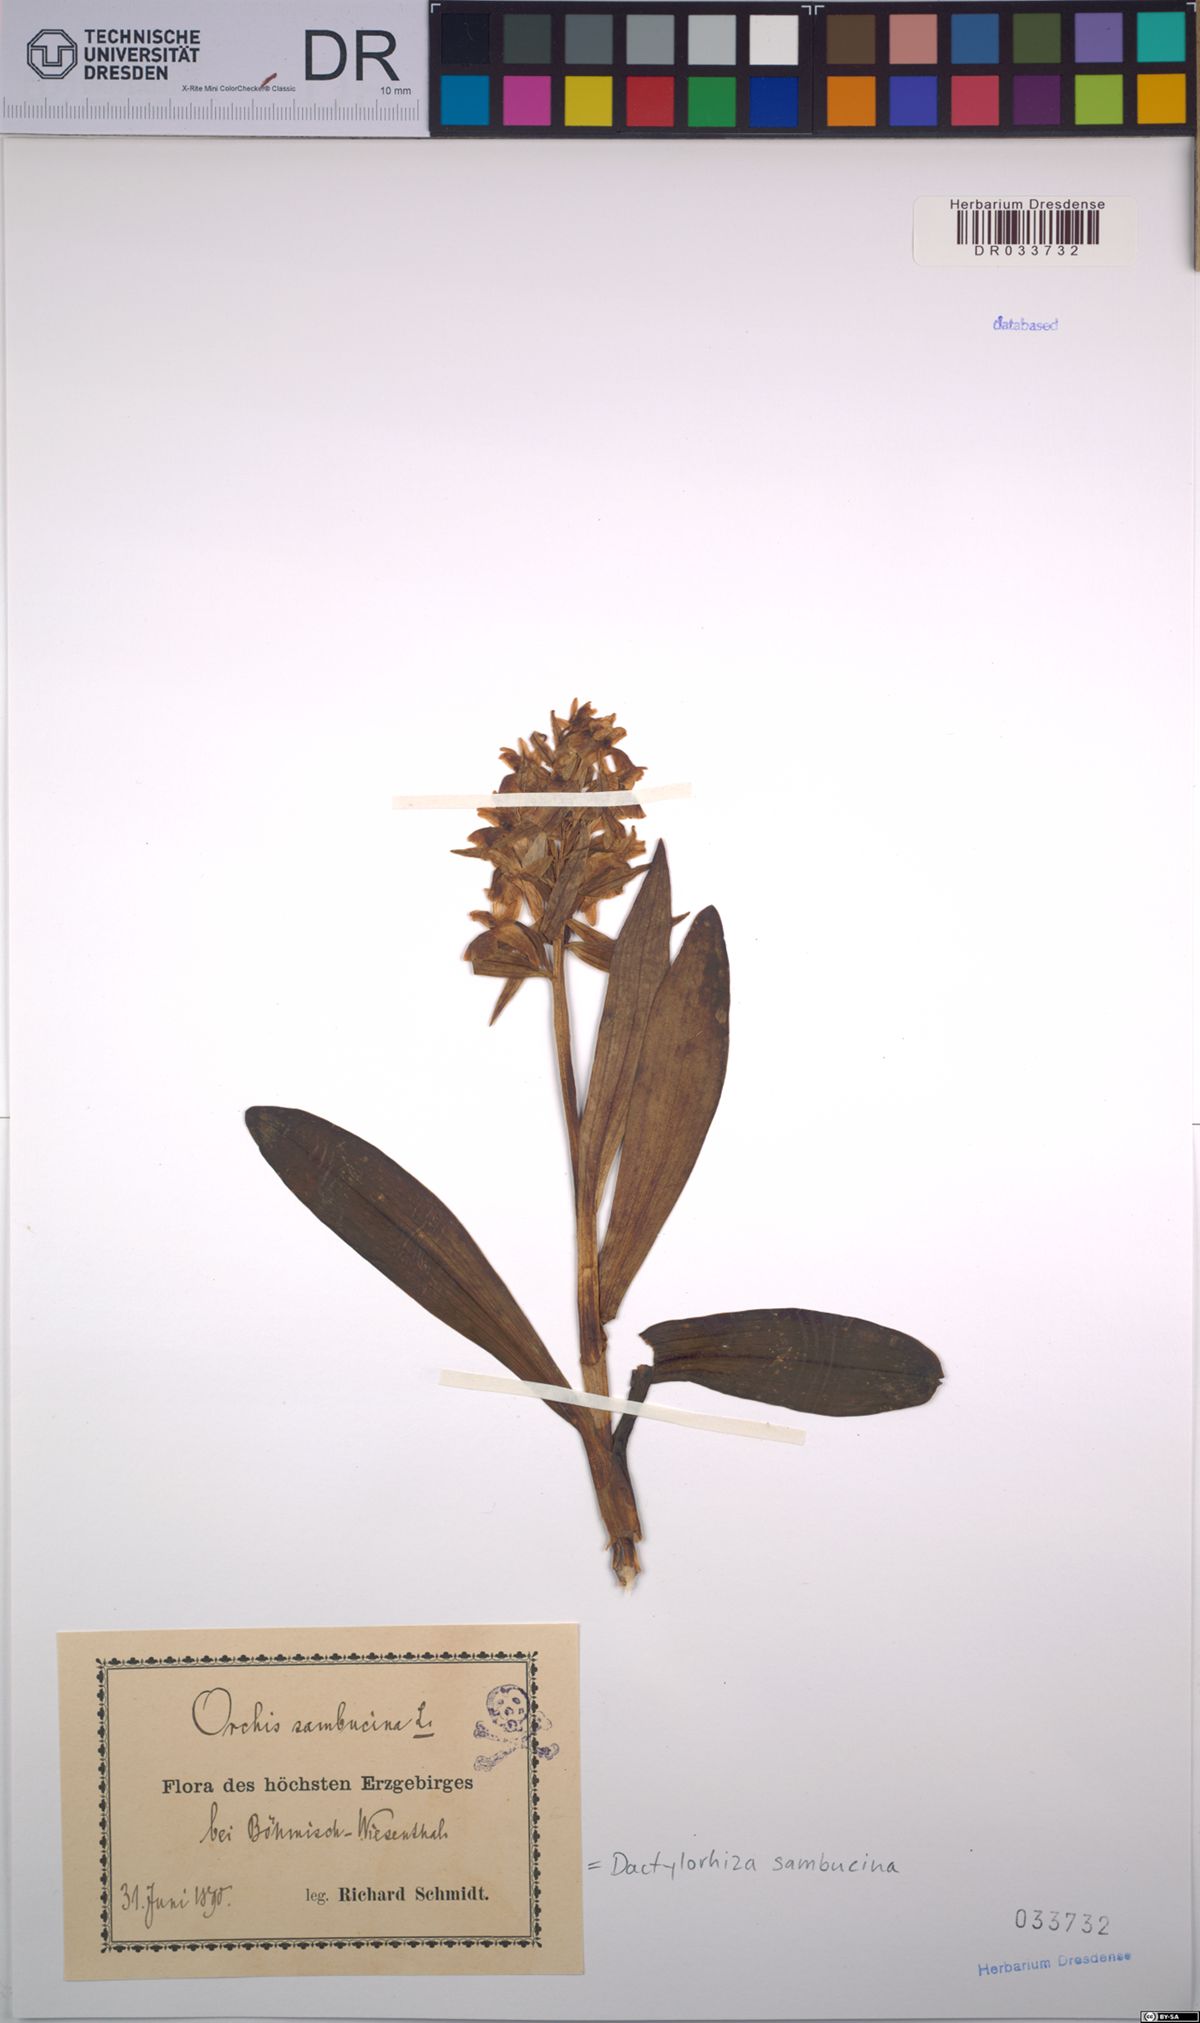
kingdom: Plantae
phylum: Tracheophyta
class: Liliopsida
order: Asparagales
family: Orchidaceae
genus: Dactylorhiza
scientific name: Dactylorhiza sambucina
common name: Elder-flowered orchid
